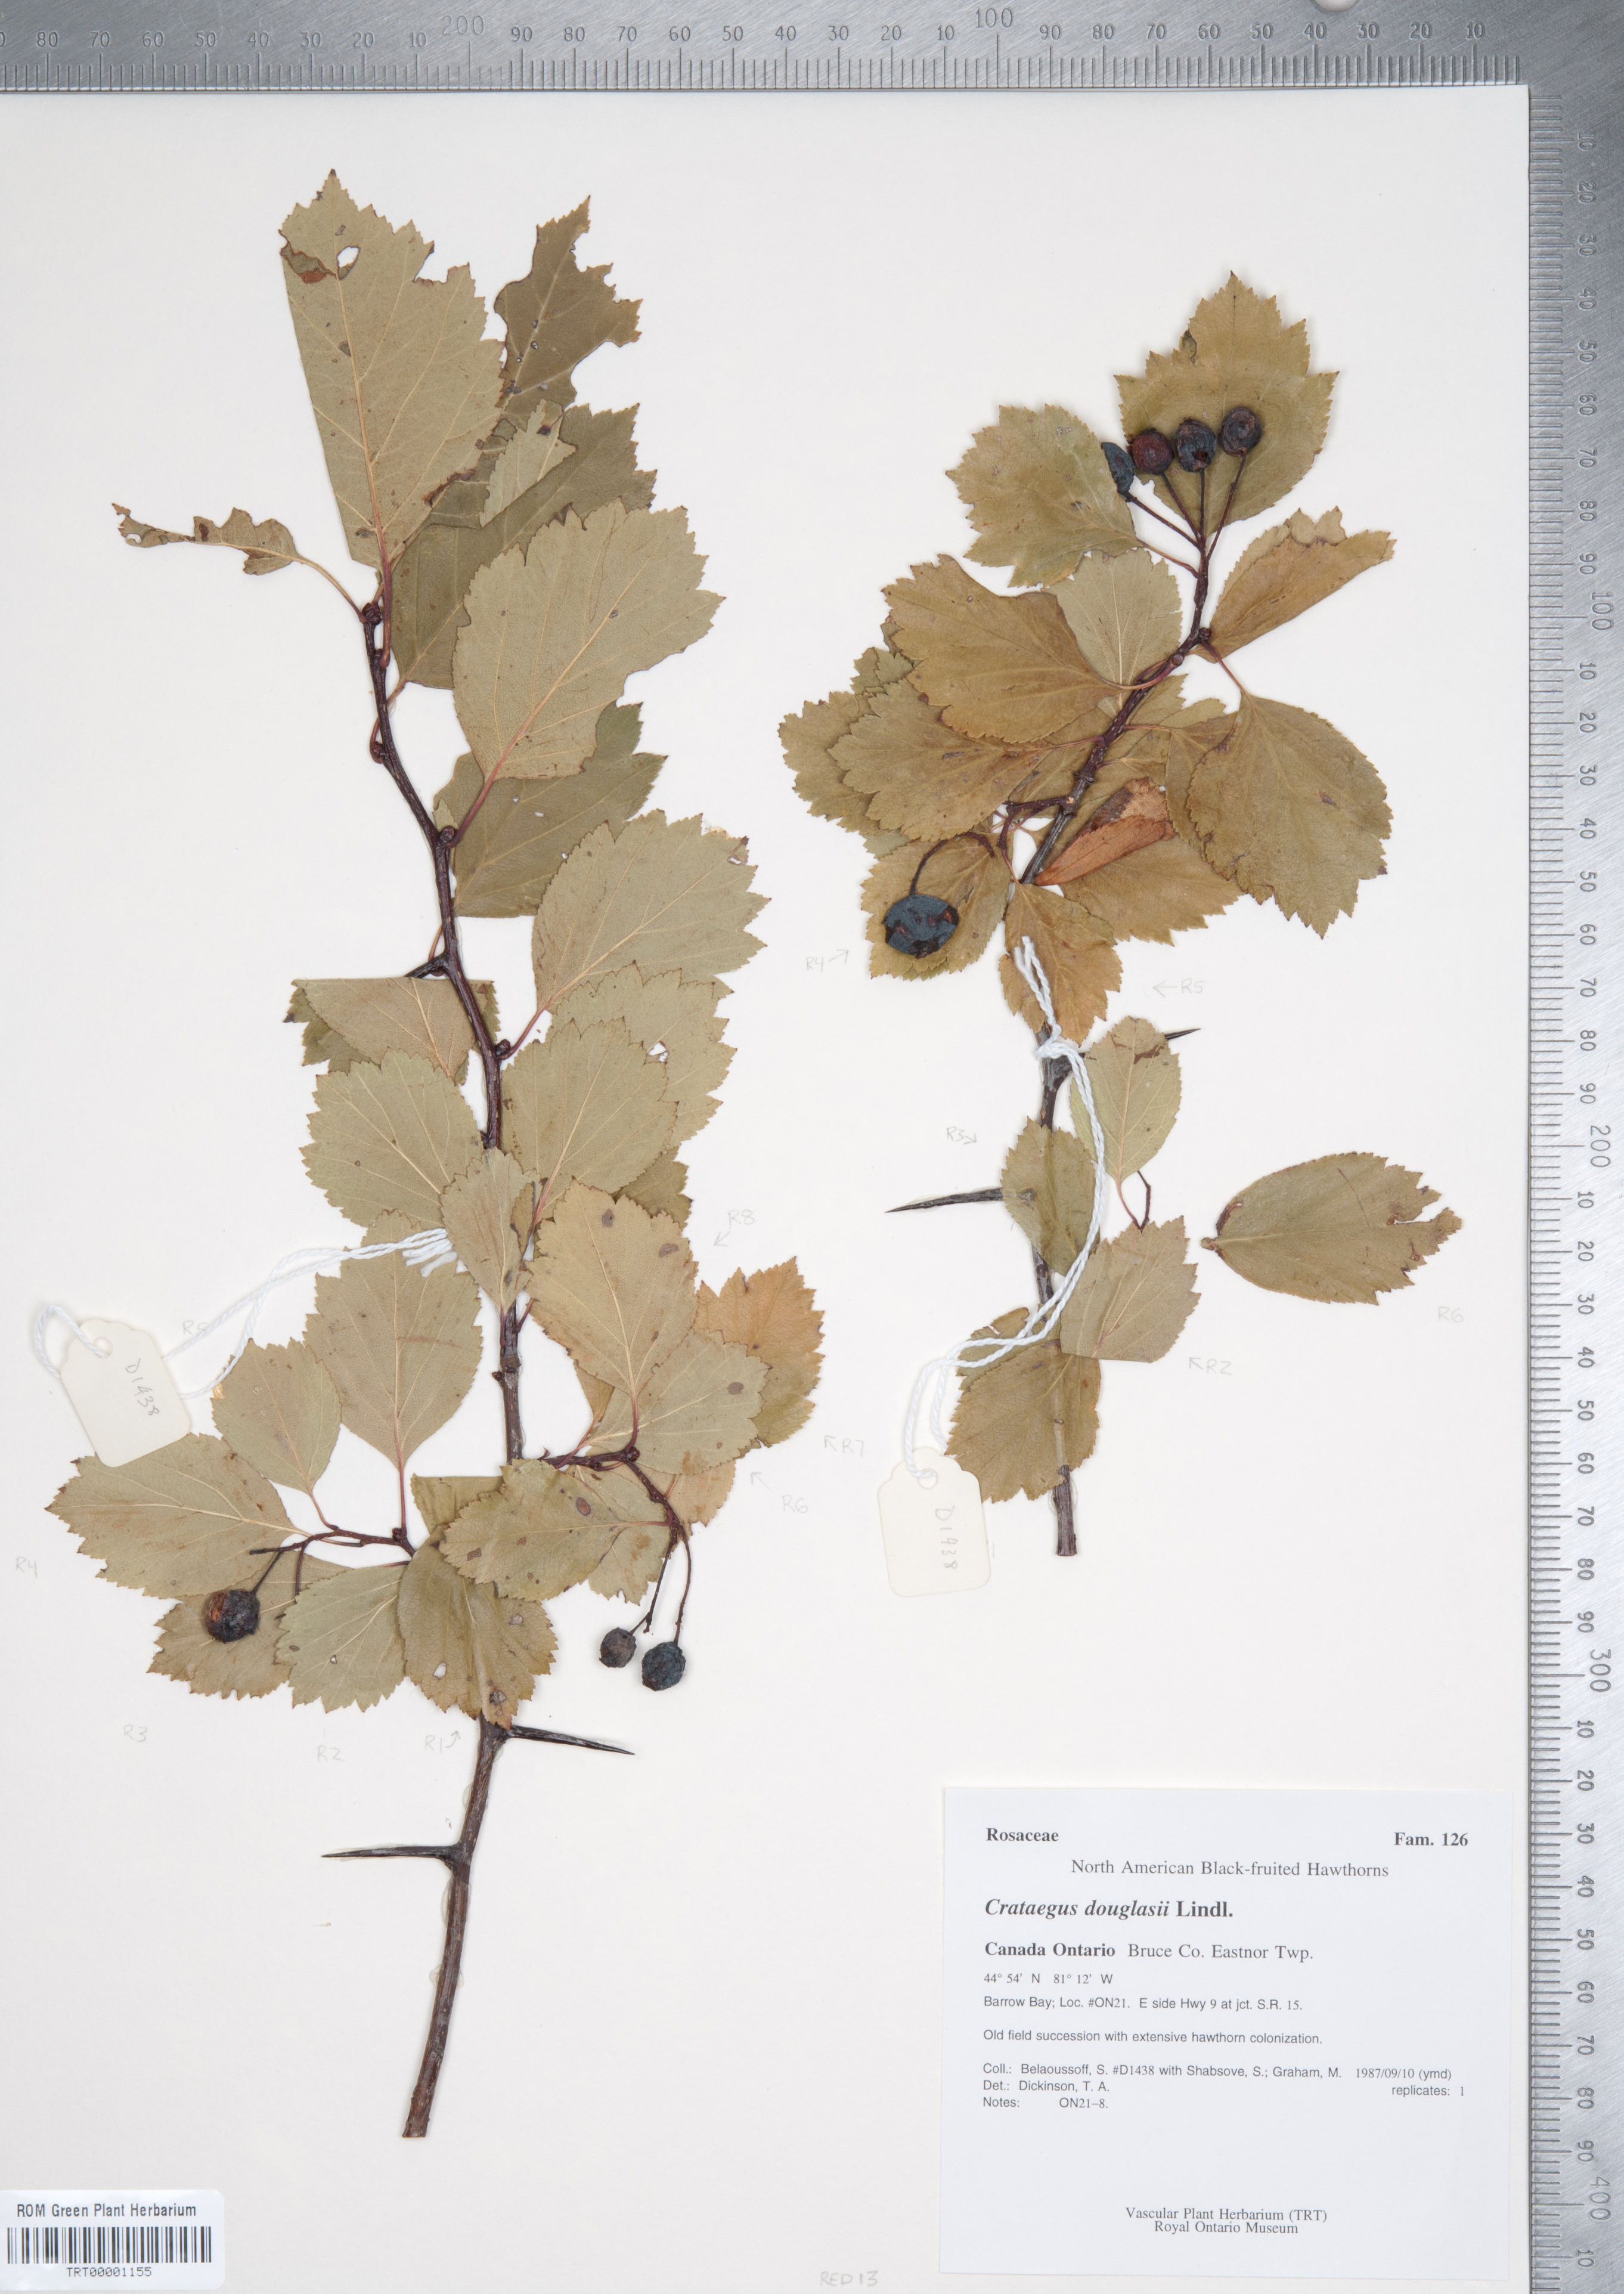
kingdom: Plantae
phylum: Tracheophyta
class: Magnoliopsida
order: Rosales
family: Rosaceae
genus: Crataegus
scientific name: Crataegus douglasii
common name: Black hawthorn
